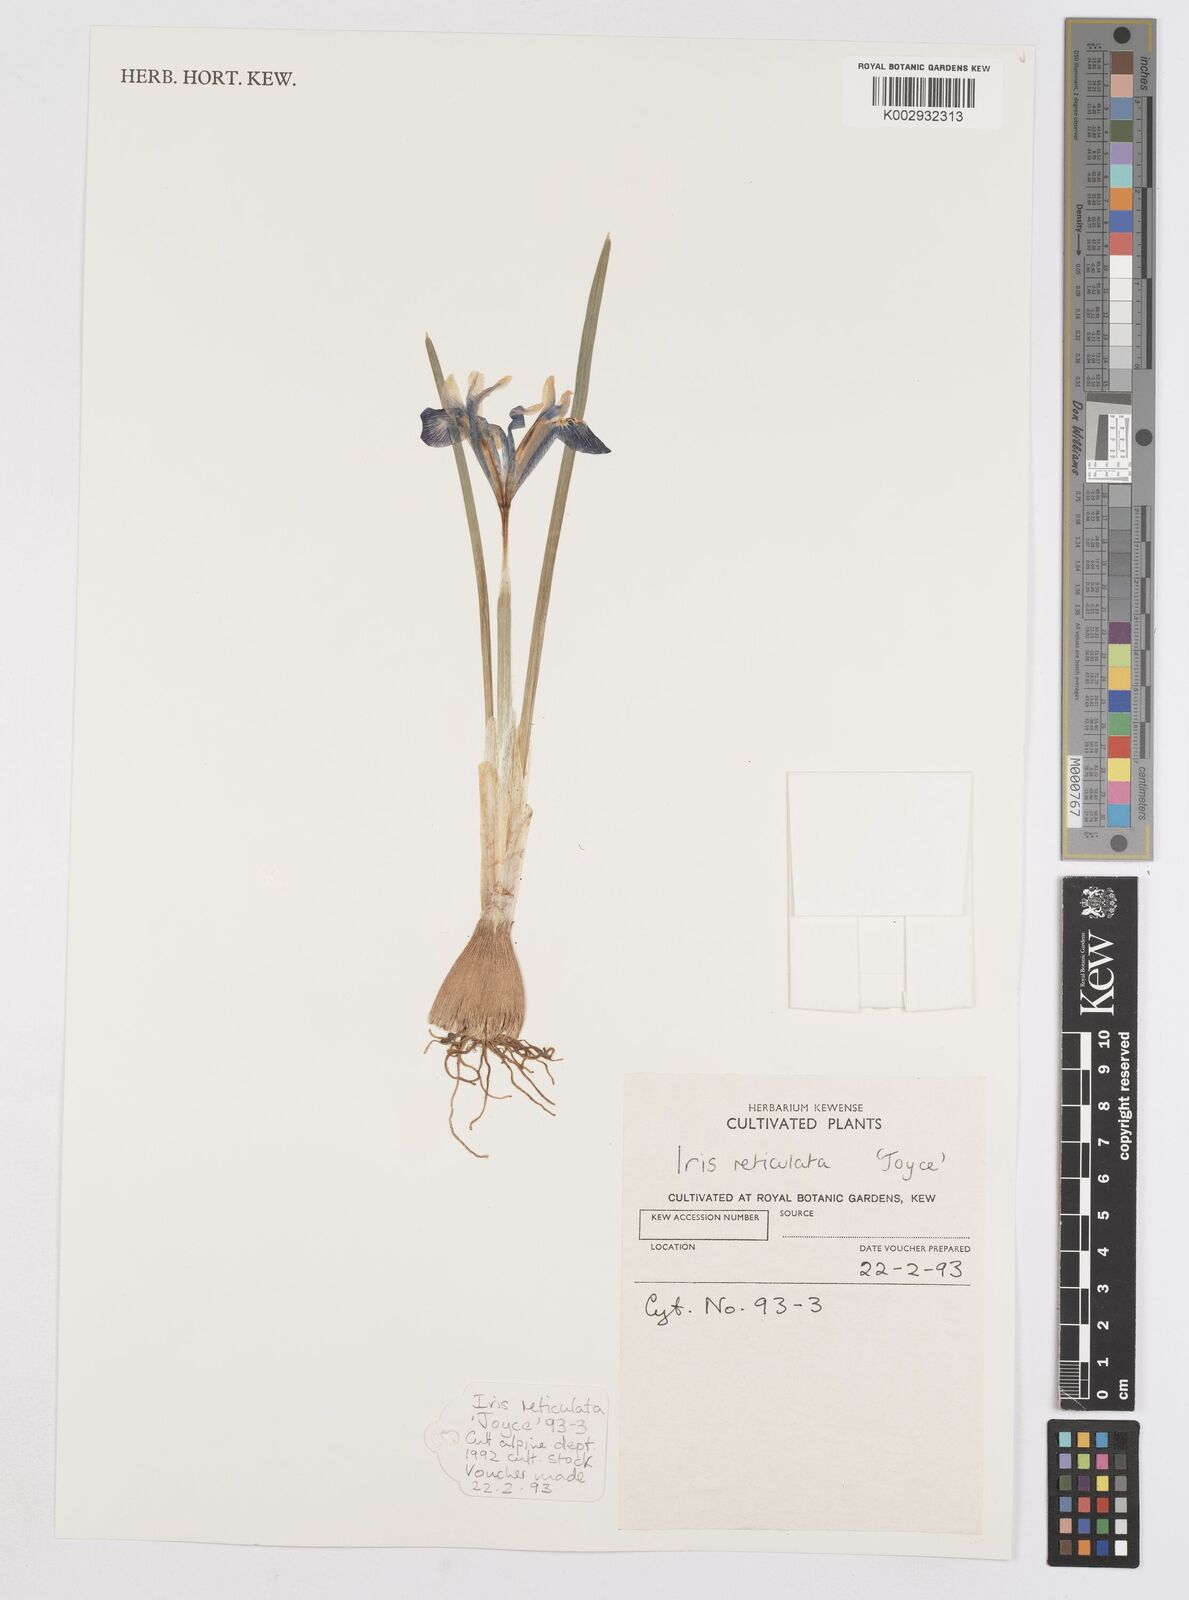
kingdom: Plantae
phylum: Tracheophyta
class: Liliopsida
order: Asparagales
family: Iridaceae
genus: Iris
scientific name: Iris reticulata
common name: Netted iris
